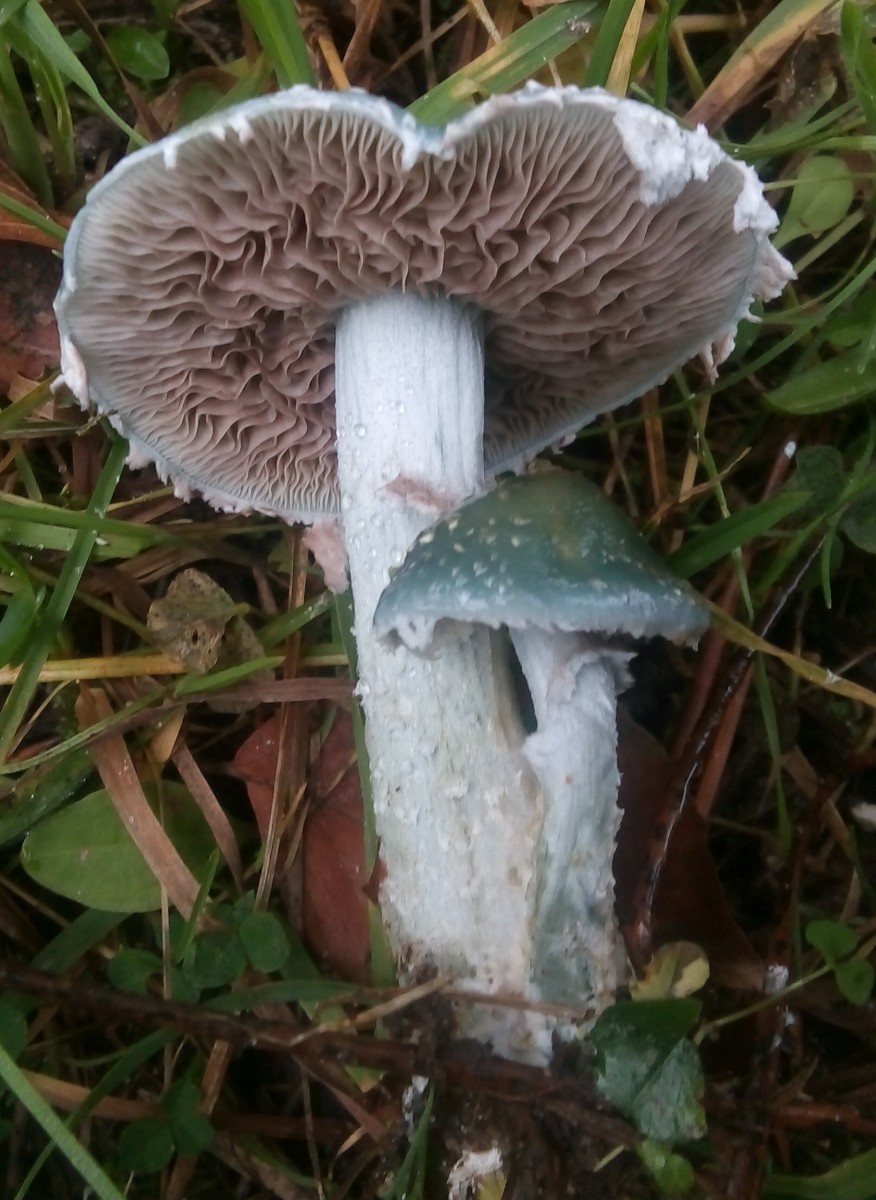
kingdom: Fungi
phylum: Basidiomycota
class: Agaricomycetes
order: Agaricales
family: Strophariaceae
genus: Stropharia
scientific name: Stropharia cyanea
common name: blågrøn bredblad
